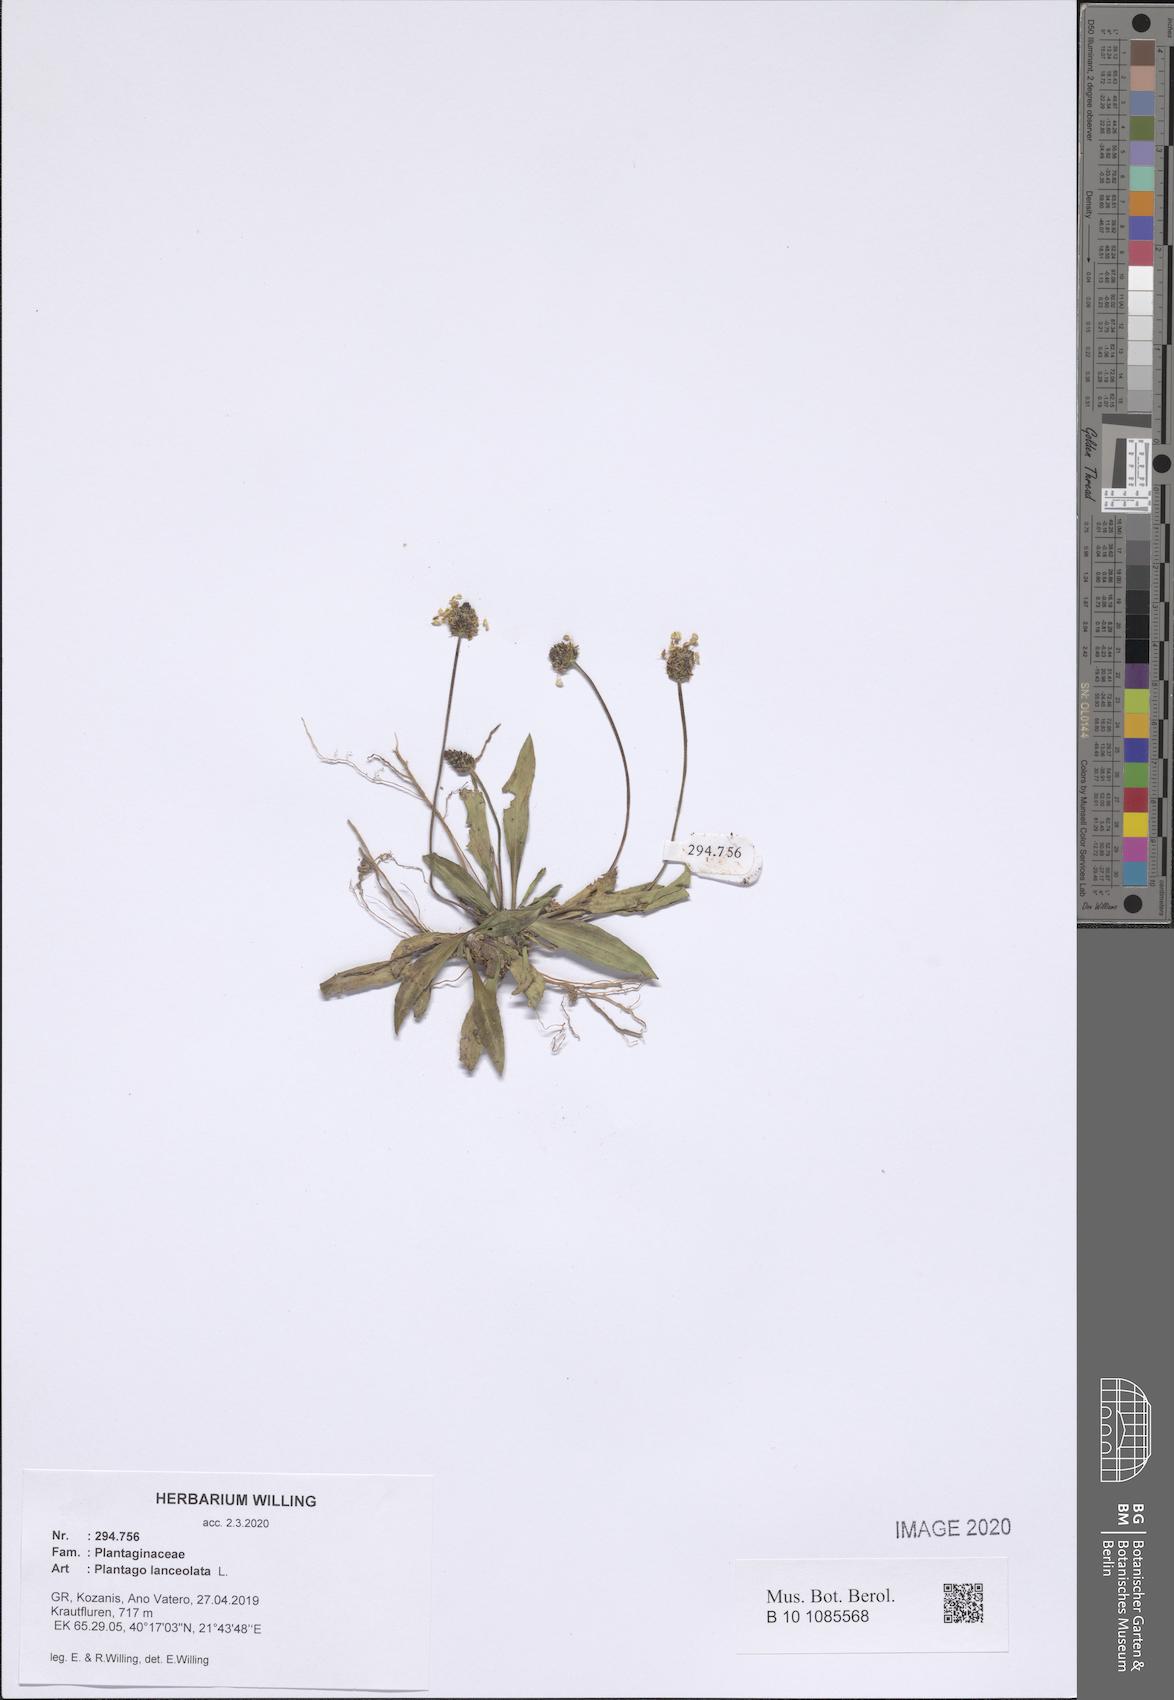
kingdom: Plantae
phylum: Tracheophyta
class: Magnoliopsida
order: Lamiales
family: Plantaginaceae
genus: Plantago
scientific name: Plantago lanceolata
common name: Ribwort plantain
